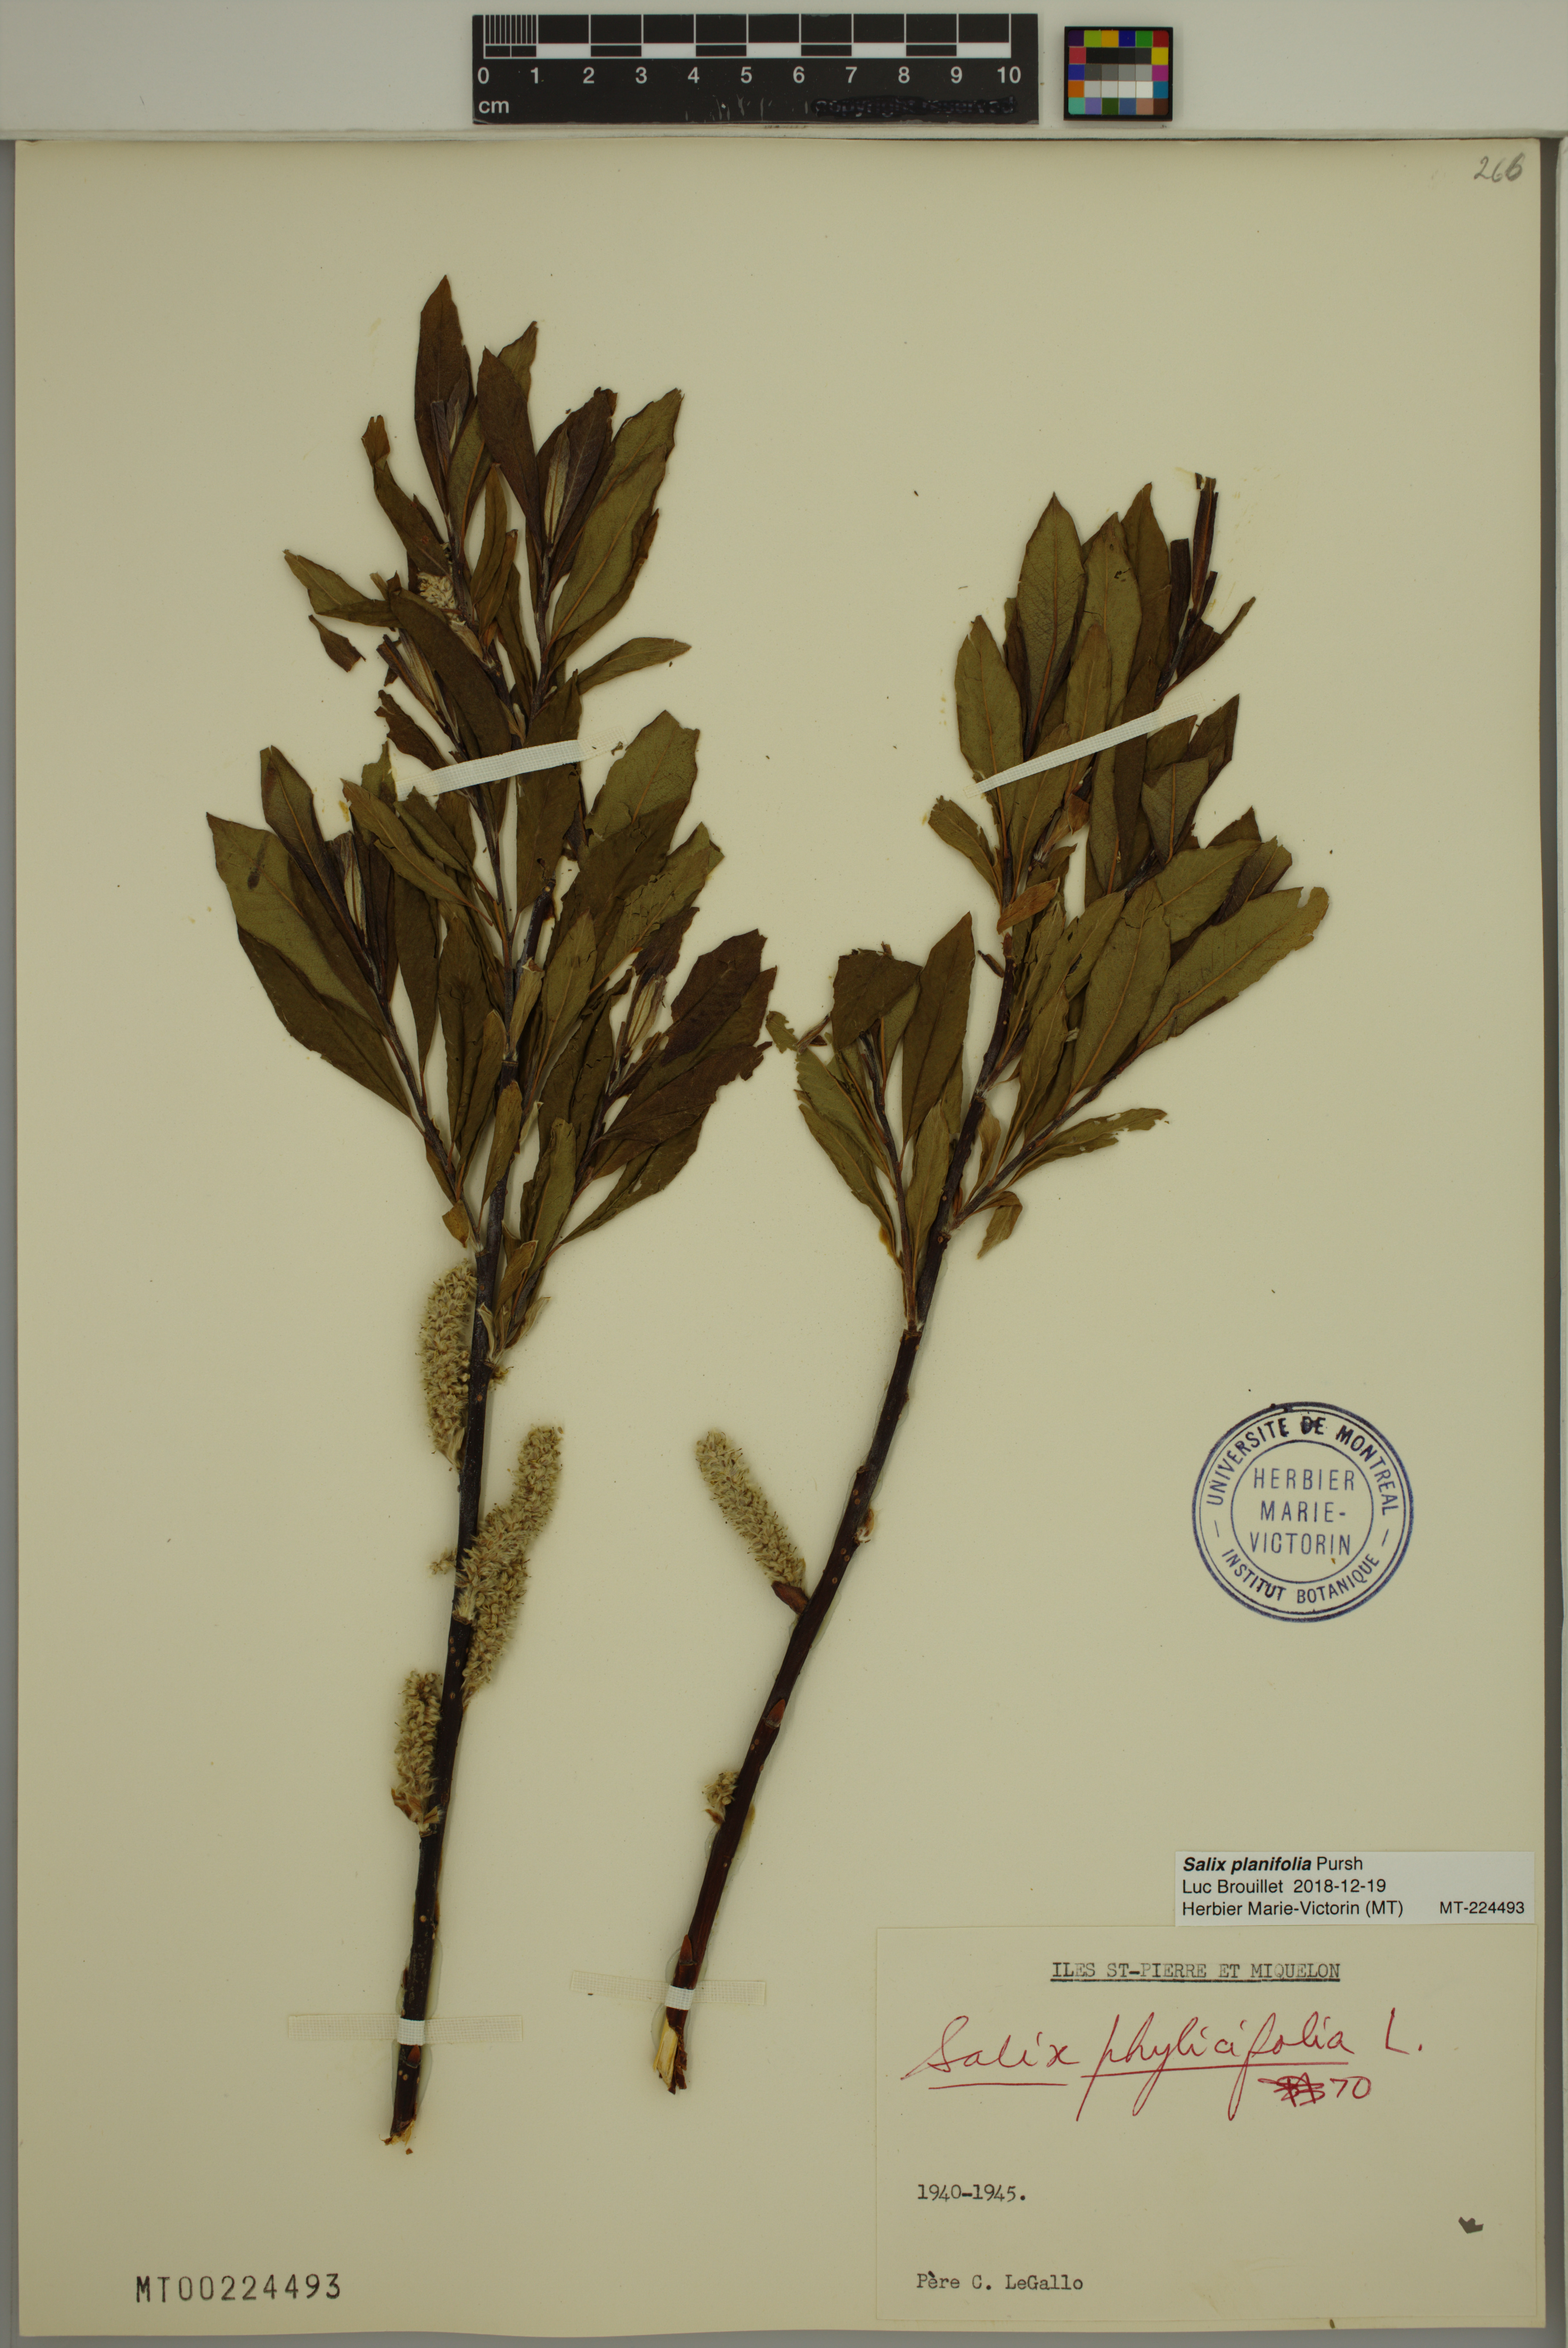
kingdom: Plantae
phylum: Tracheophyta
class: Magnoliopsida
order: Malpighiales
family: Salicaceae
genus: Salix
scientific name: Salix planifolia
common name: Mountain willow
